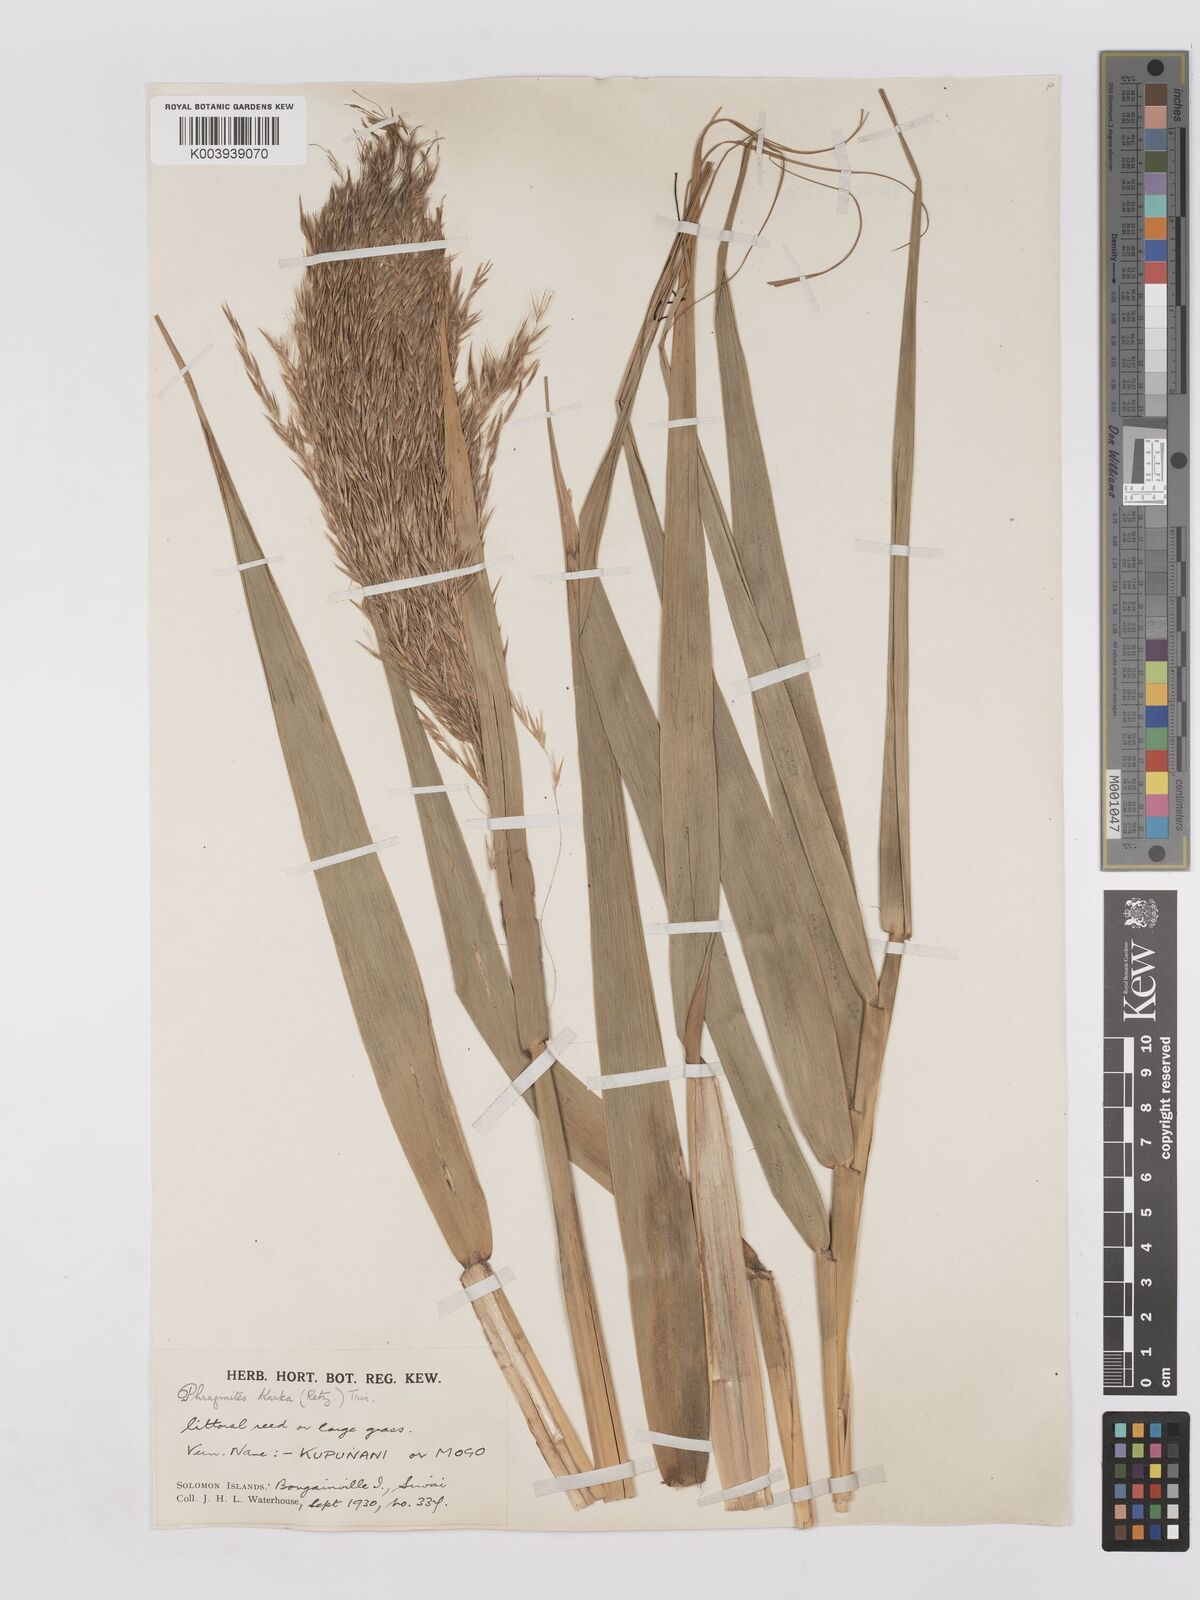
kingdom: Plantae
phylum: Tracheophyta
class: Liliopsida
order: Poales
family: Poaceae
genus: Phragmites
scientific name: Phragmites karka
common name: Tropical reed
